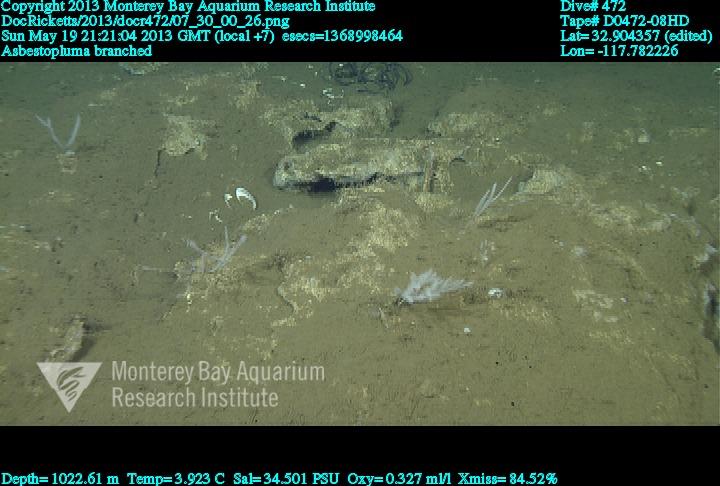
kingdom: Animalia
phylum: Porifera
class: Demospongiae
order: Poecilosclerida
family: Cladorhizidae
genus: Asbestopluma
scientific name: Asbestopluma rickettsi
